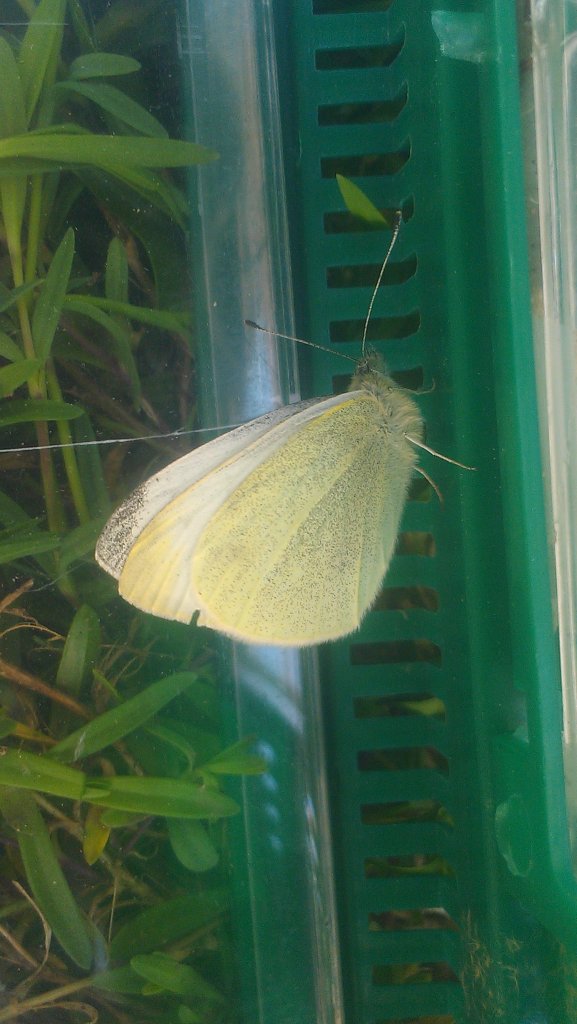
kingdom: Animalia
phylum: Arthropoda
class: Insecta
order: Lepidoptera
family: Pieridae
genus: Pieris
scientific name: Pieris rapae
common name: Cabbage White
